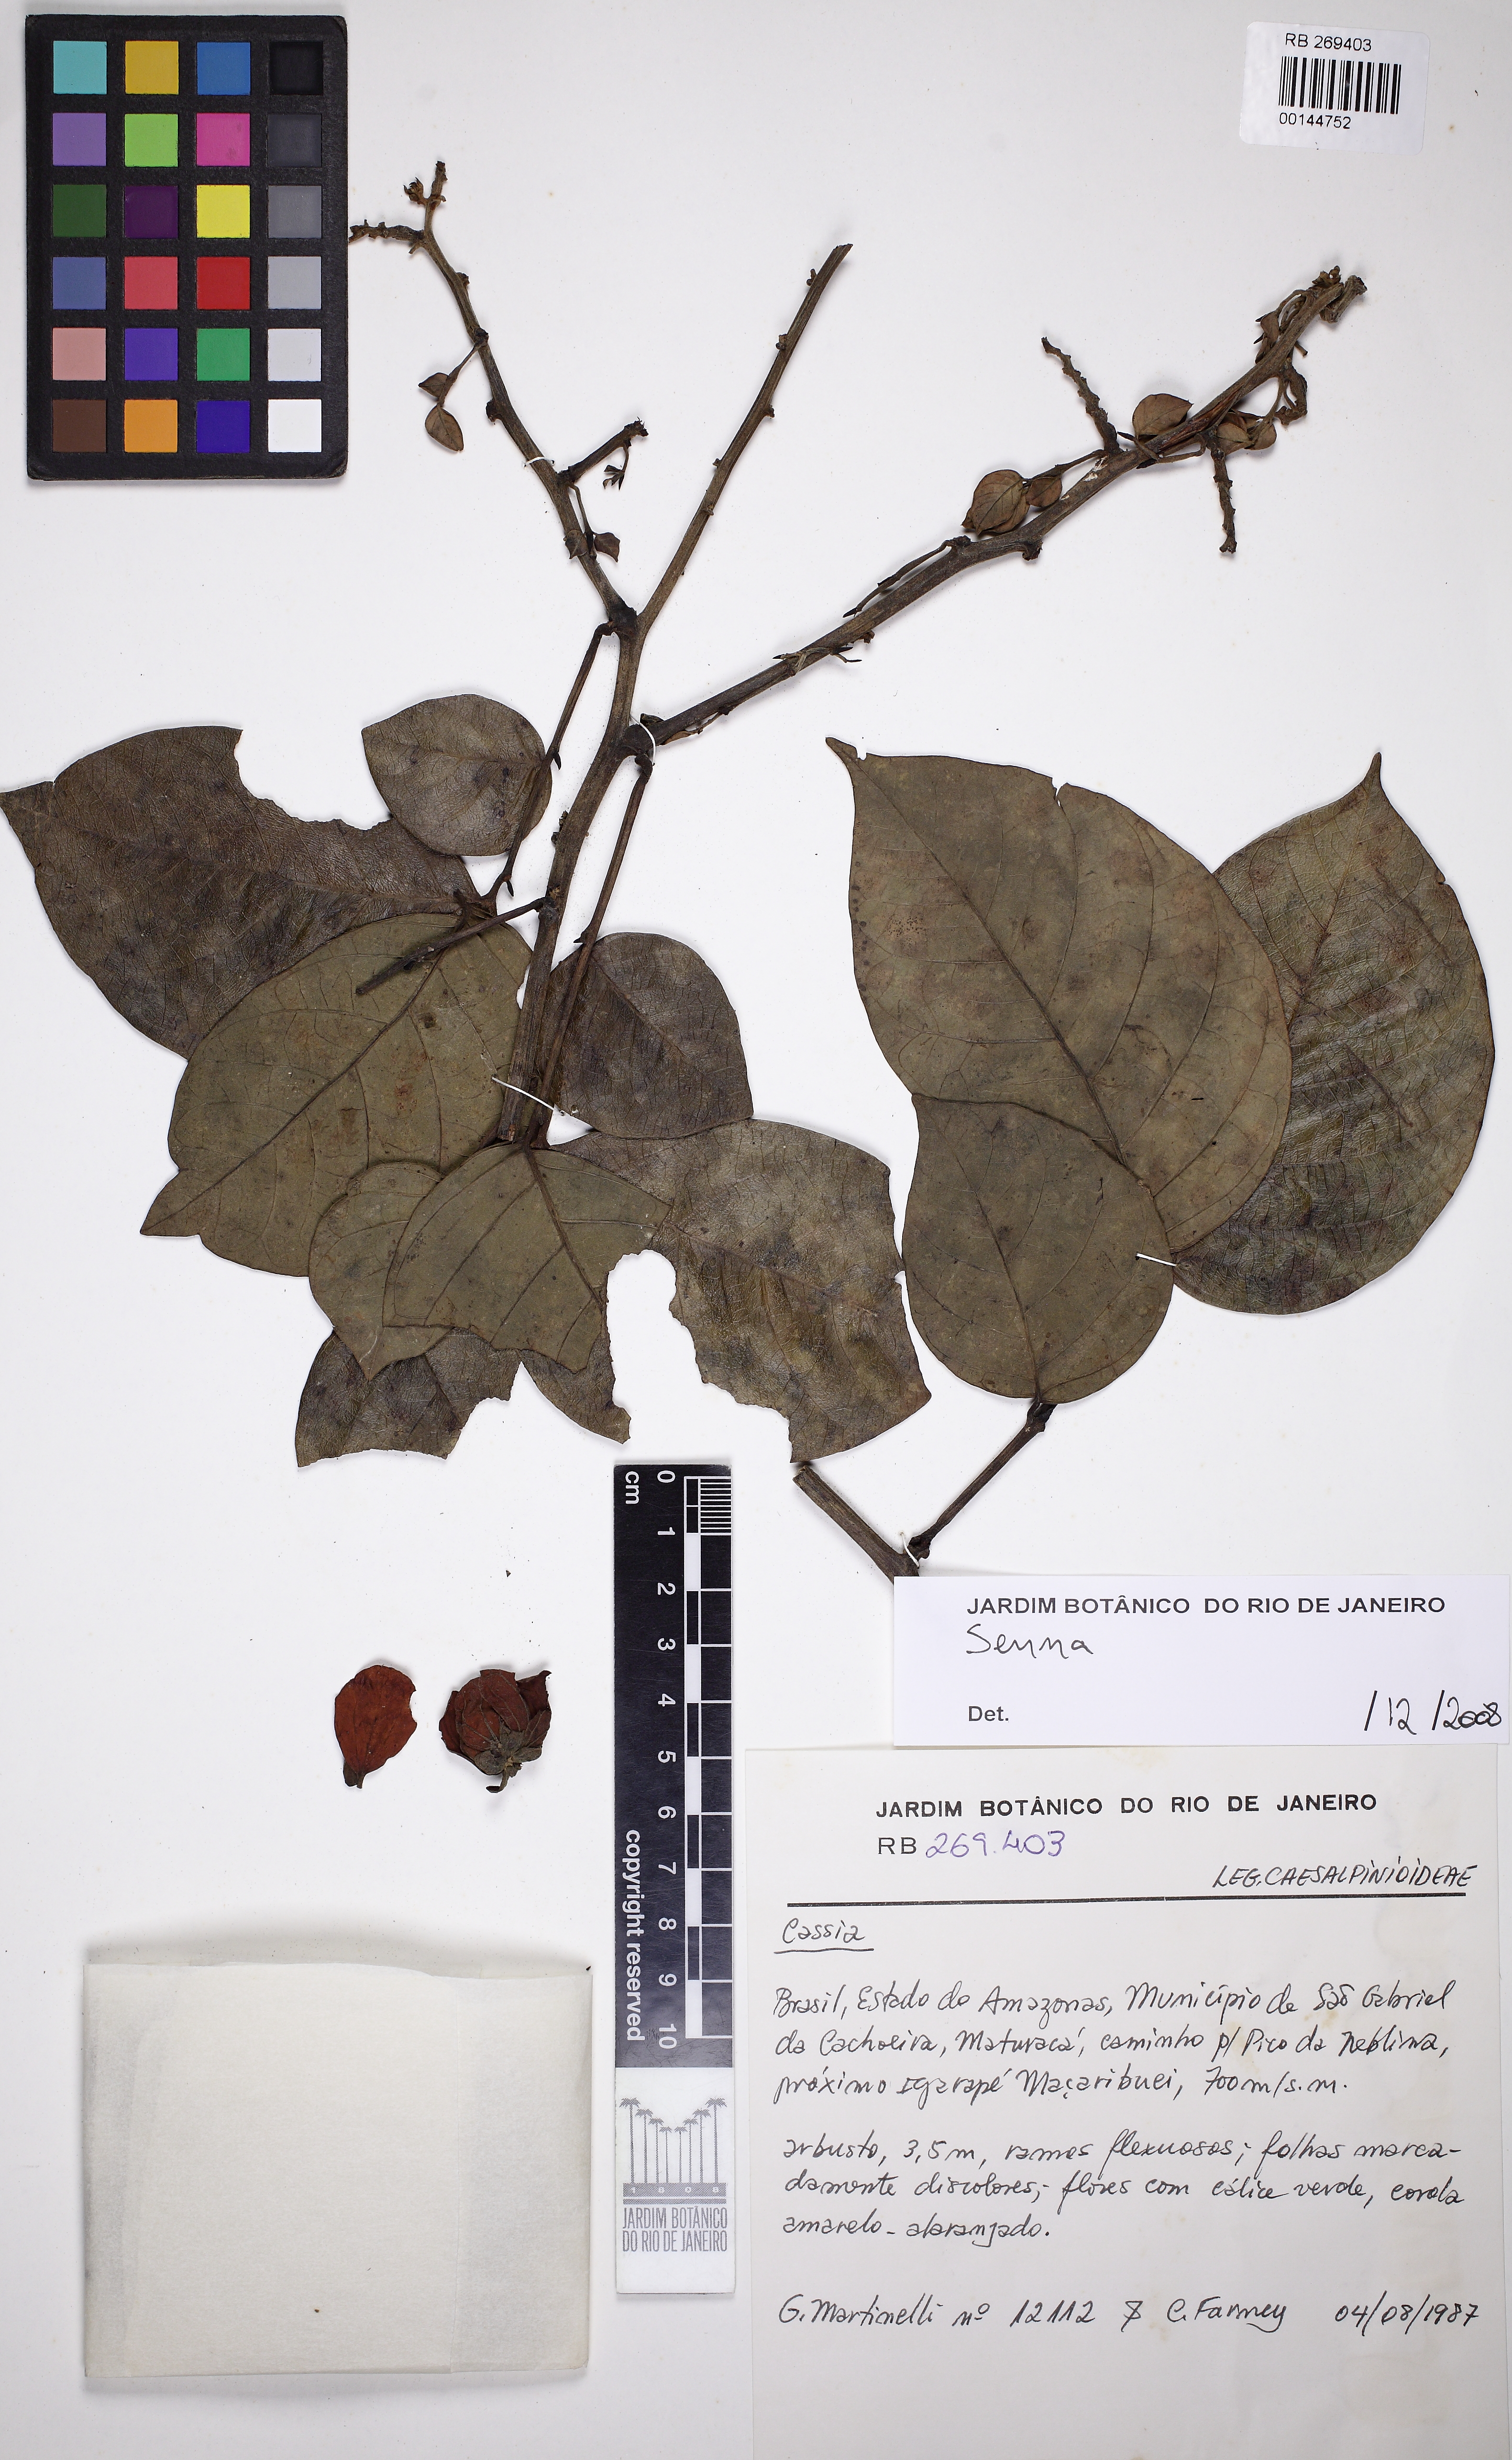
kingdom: Plantae
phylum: Tracheophyta
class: Magnoliopsida
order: Fabales
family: Fabaceae
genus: Senna
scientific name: Senna bacillaris
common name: West indian showertree
